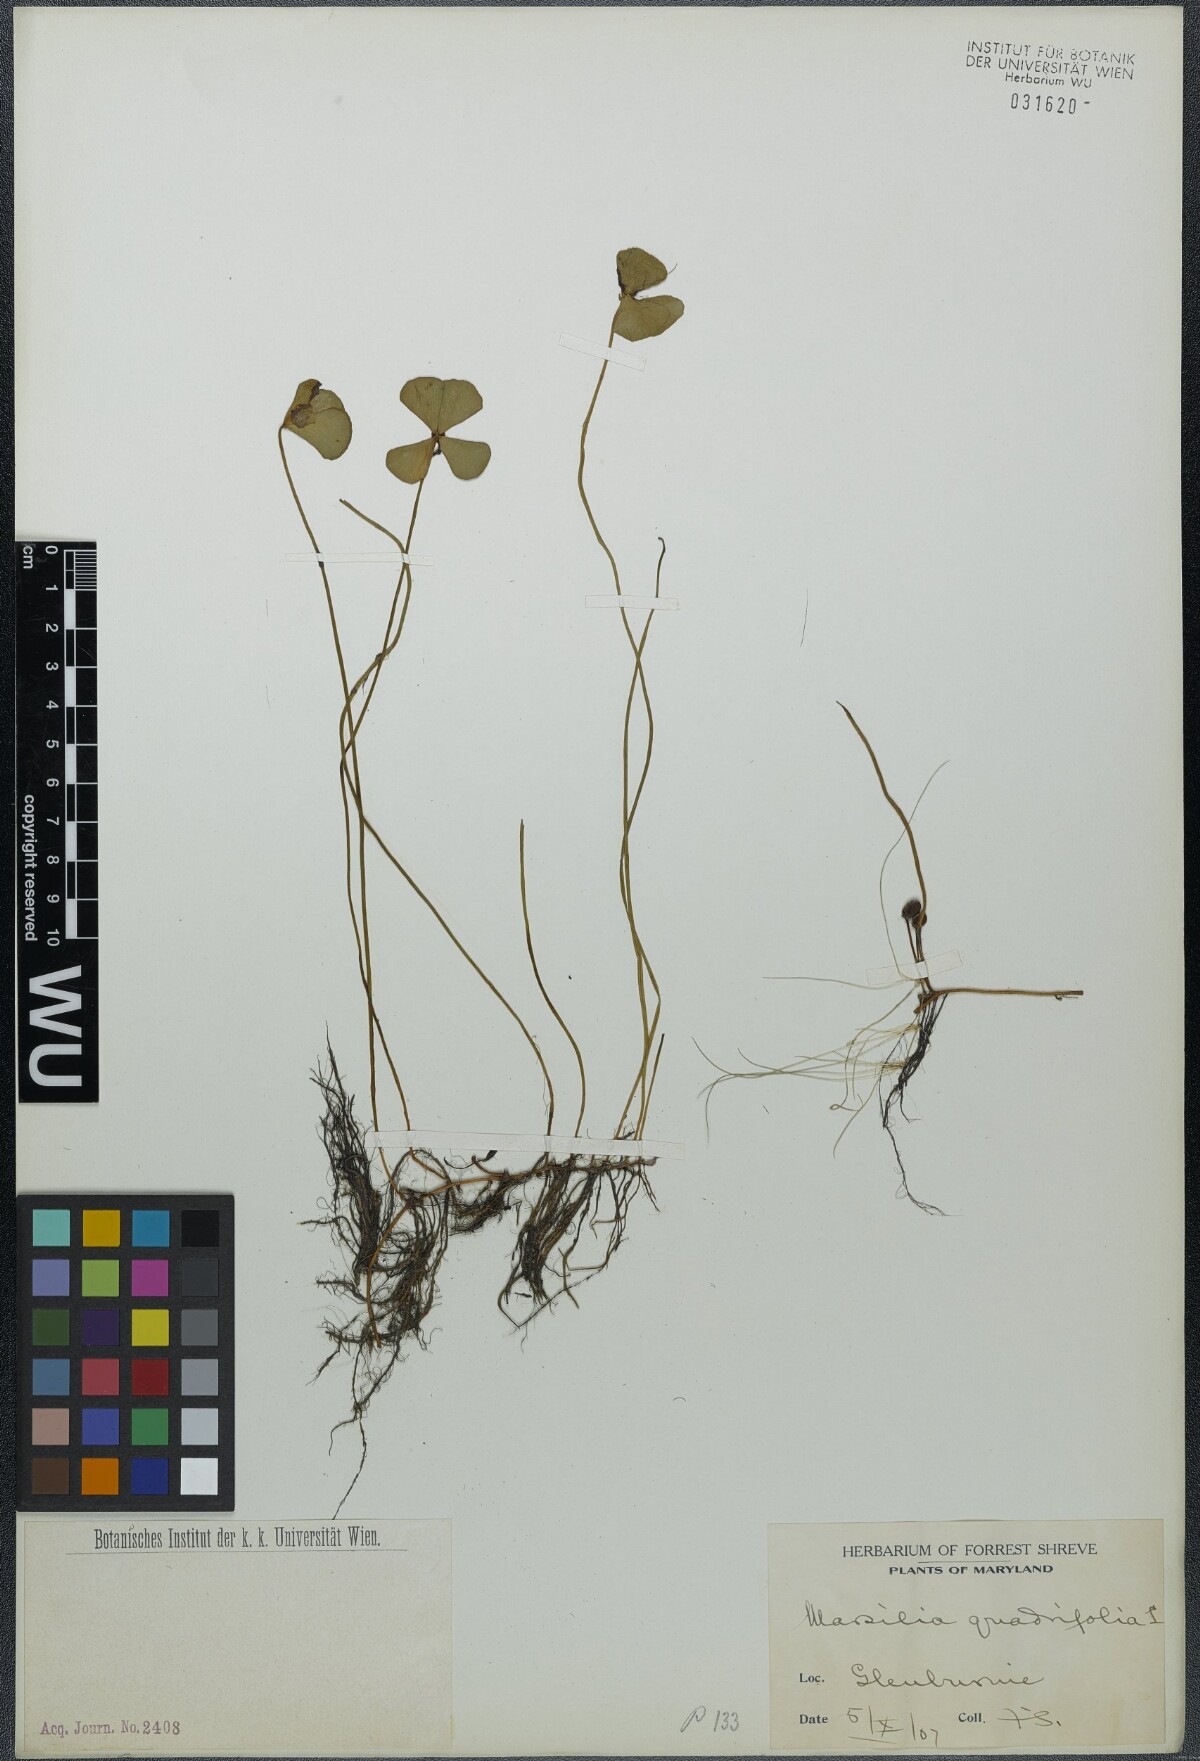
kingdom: Plantae
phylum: Tracheophyta
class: Polypodiopsida
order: Salviniales
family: Marsileaceae
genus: Marsilea
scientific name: Marsilea quadrifolia
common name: Water shamrock
